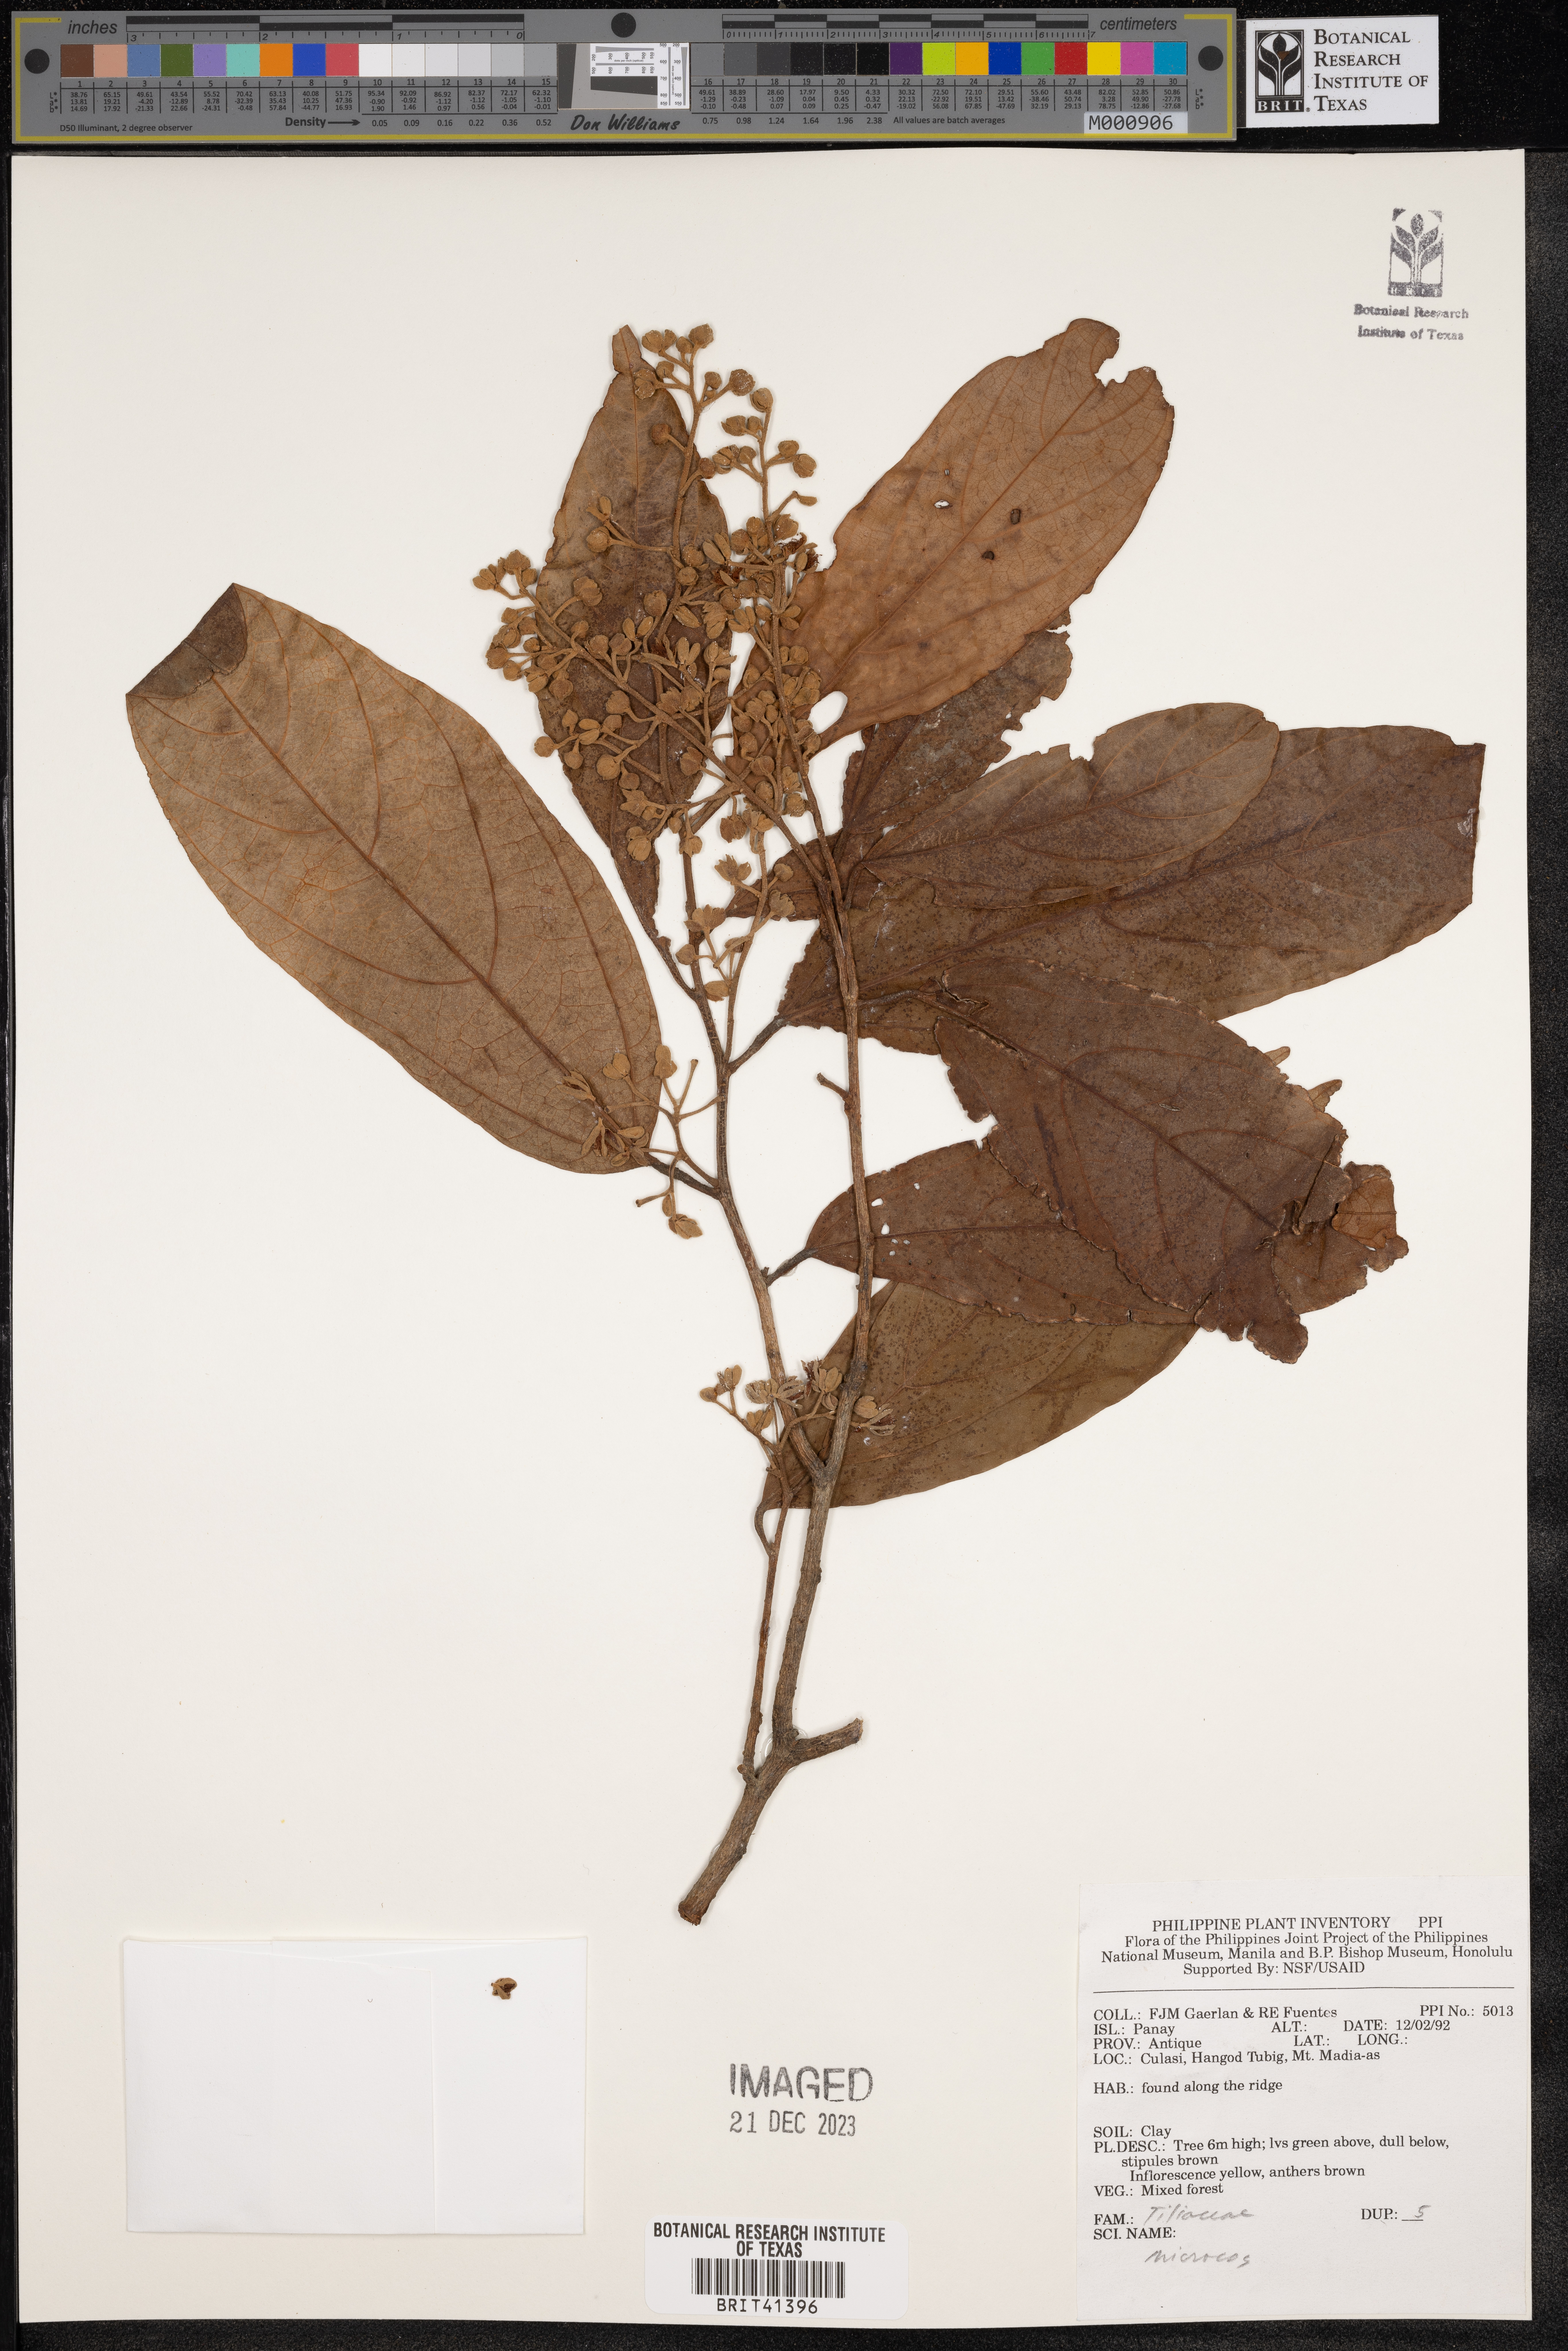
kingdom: Plantae
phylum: Tracheophyta
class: Magnoliopsida
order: Malvales
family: Malvaceae
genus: Microcos
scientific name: Microcos
